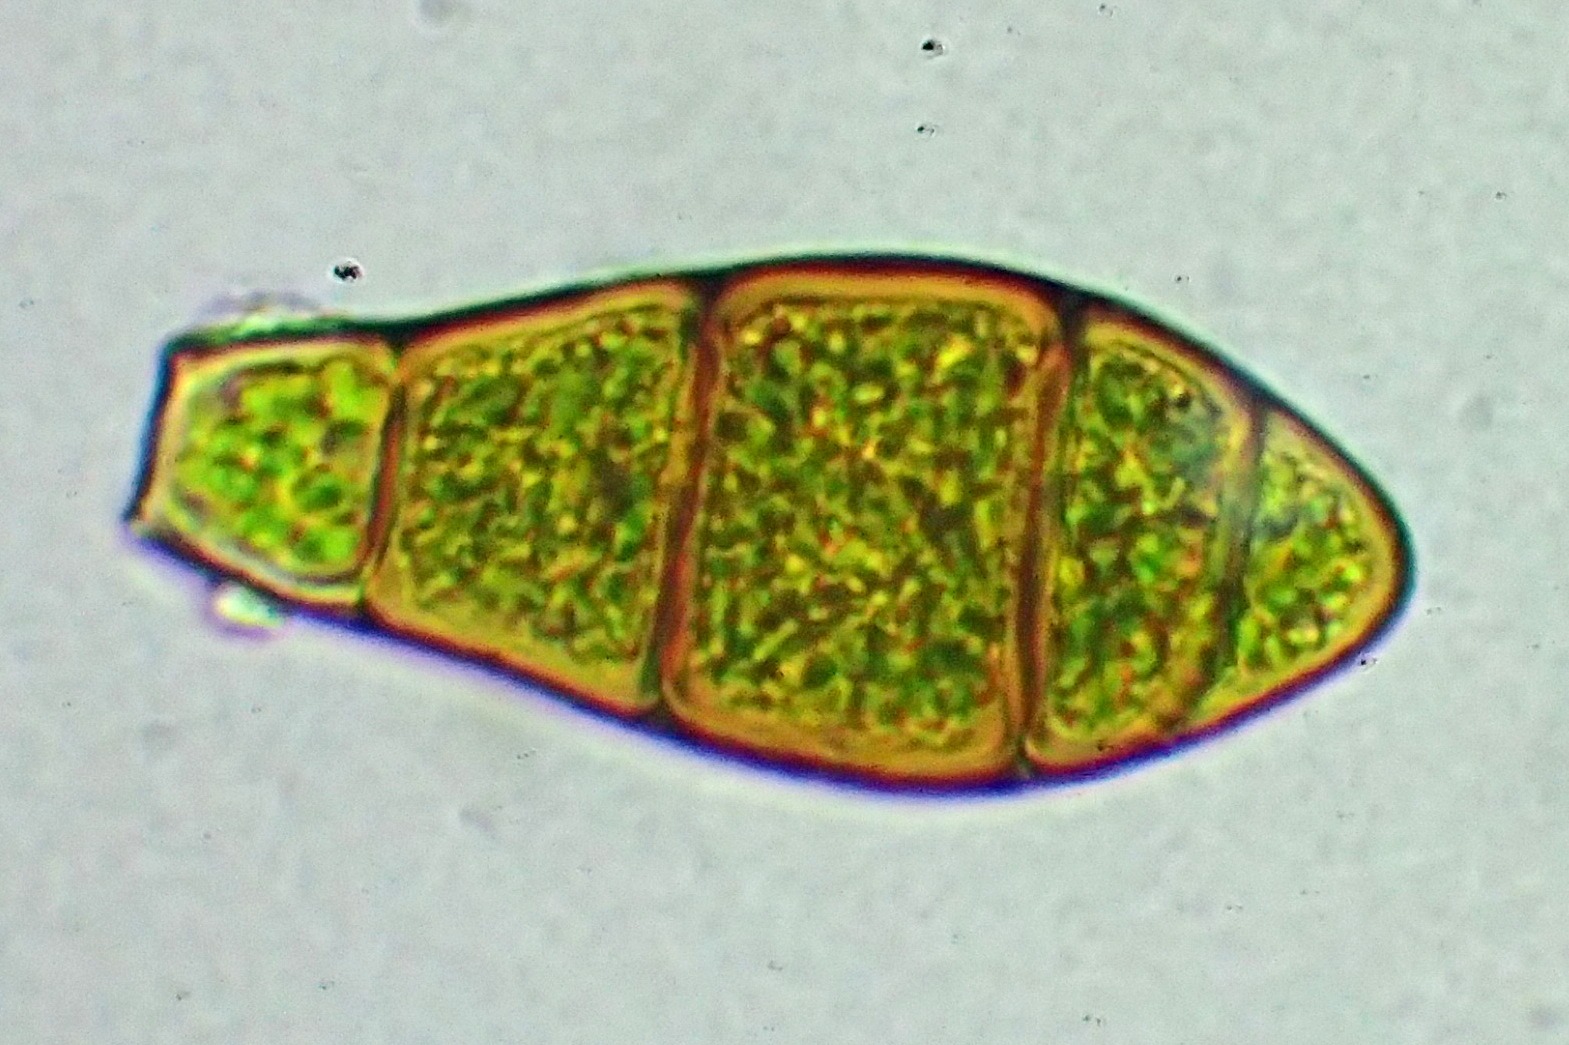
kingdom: Plantae
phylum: Bryophyta
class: Bryopsida
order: Orthotrichales
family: Orthotrichaceae
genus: Zygodon
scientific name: Zygodon rupestris
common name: Almindelig køllemos
